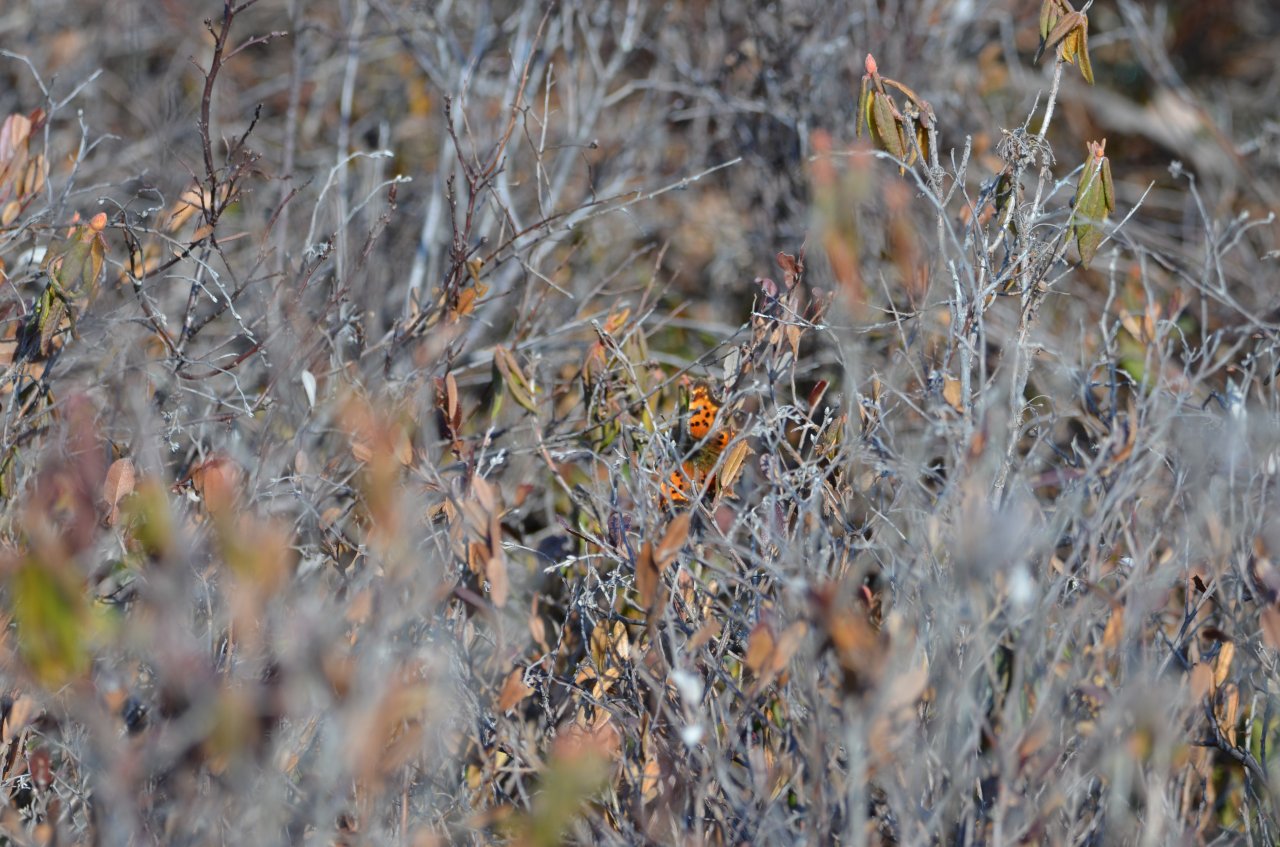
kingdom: Animalia
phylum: Arthropoda
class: Insecta
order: Lepidoptera
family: Nymphalidae
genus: Polygonia
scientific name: Polygonia faunus
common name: Green Comma
